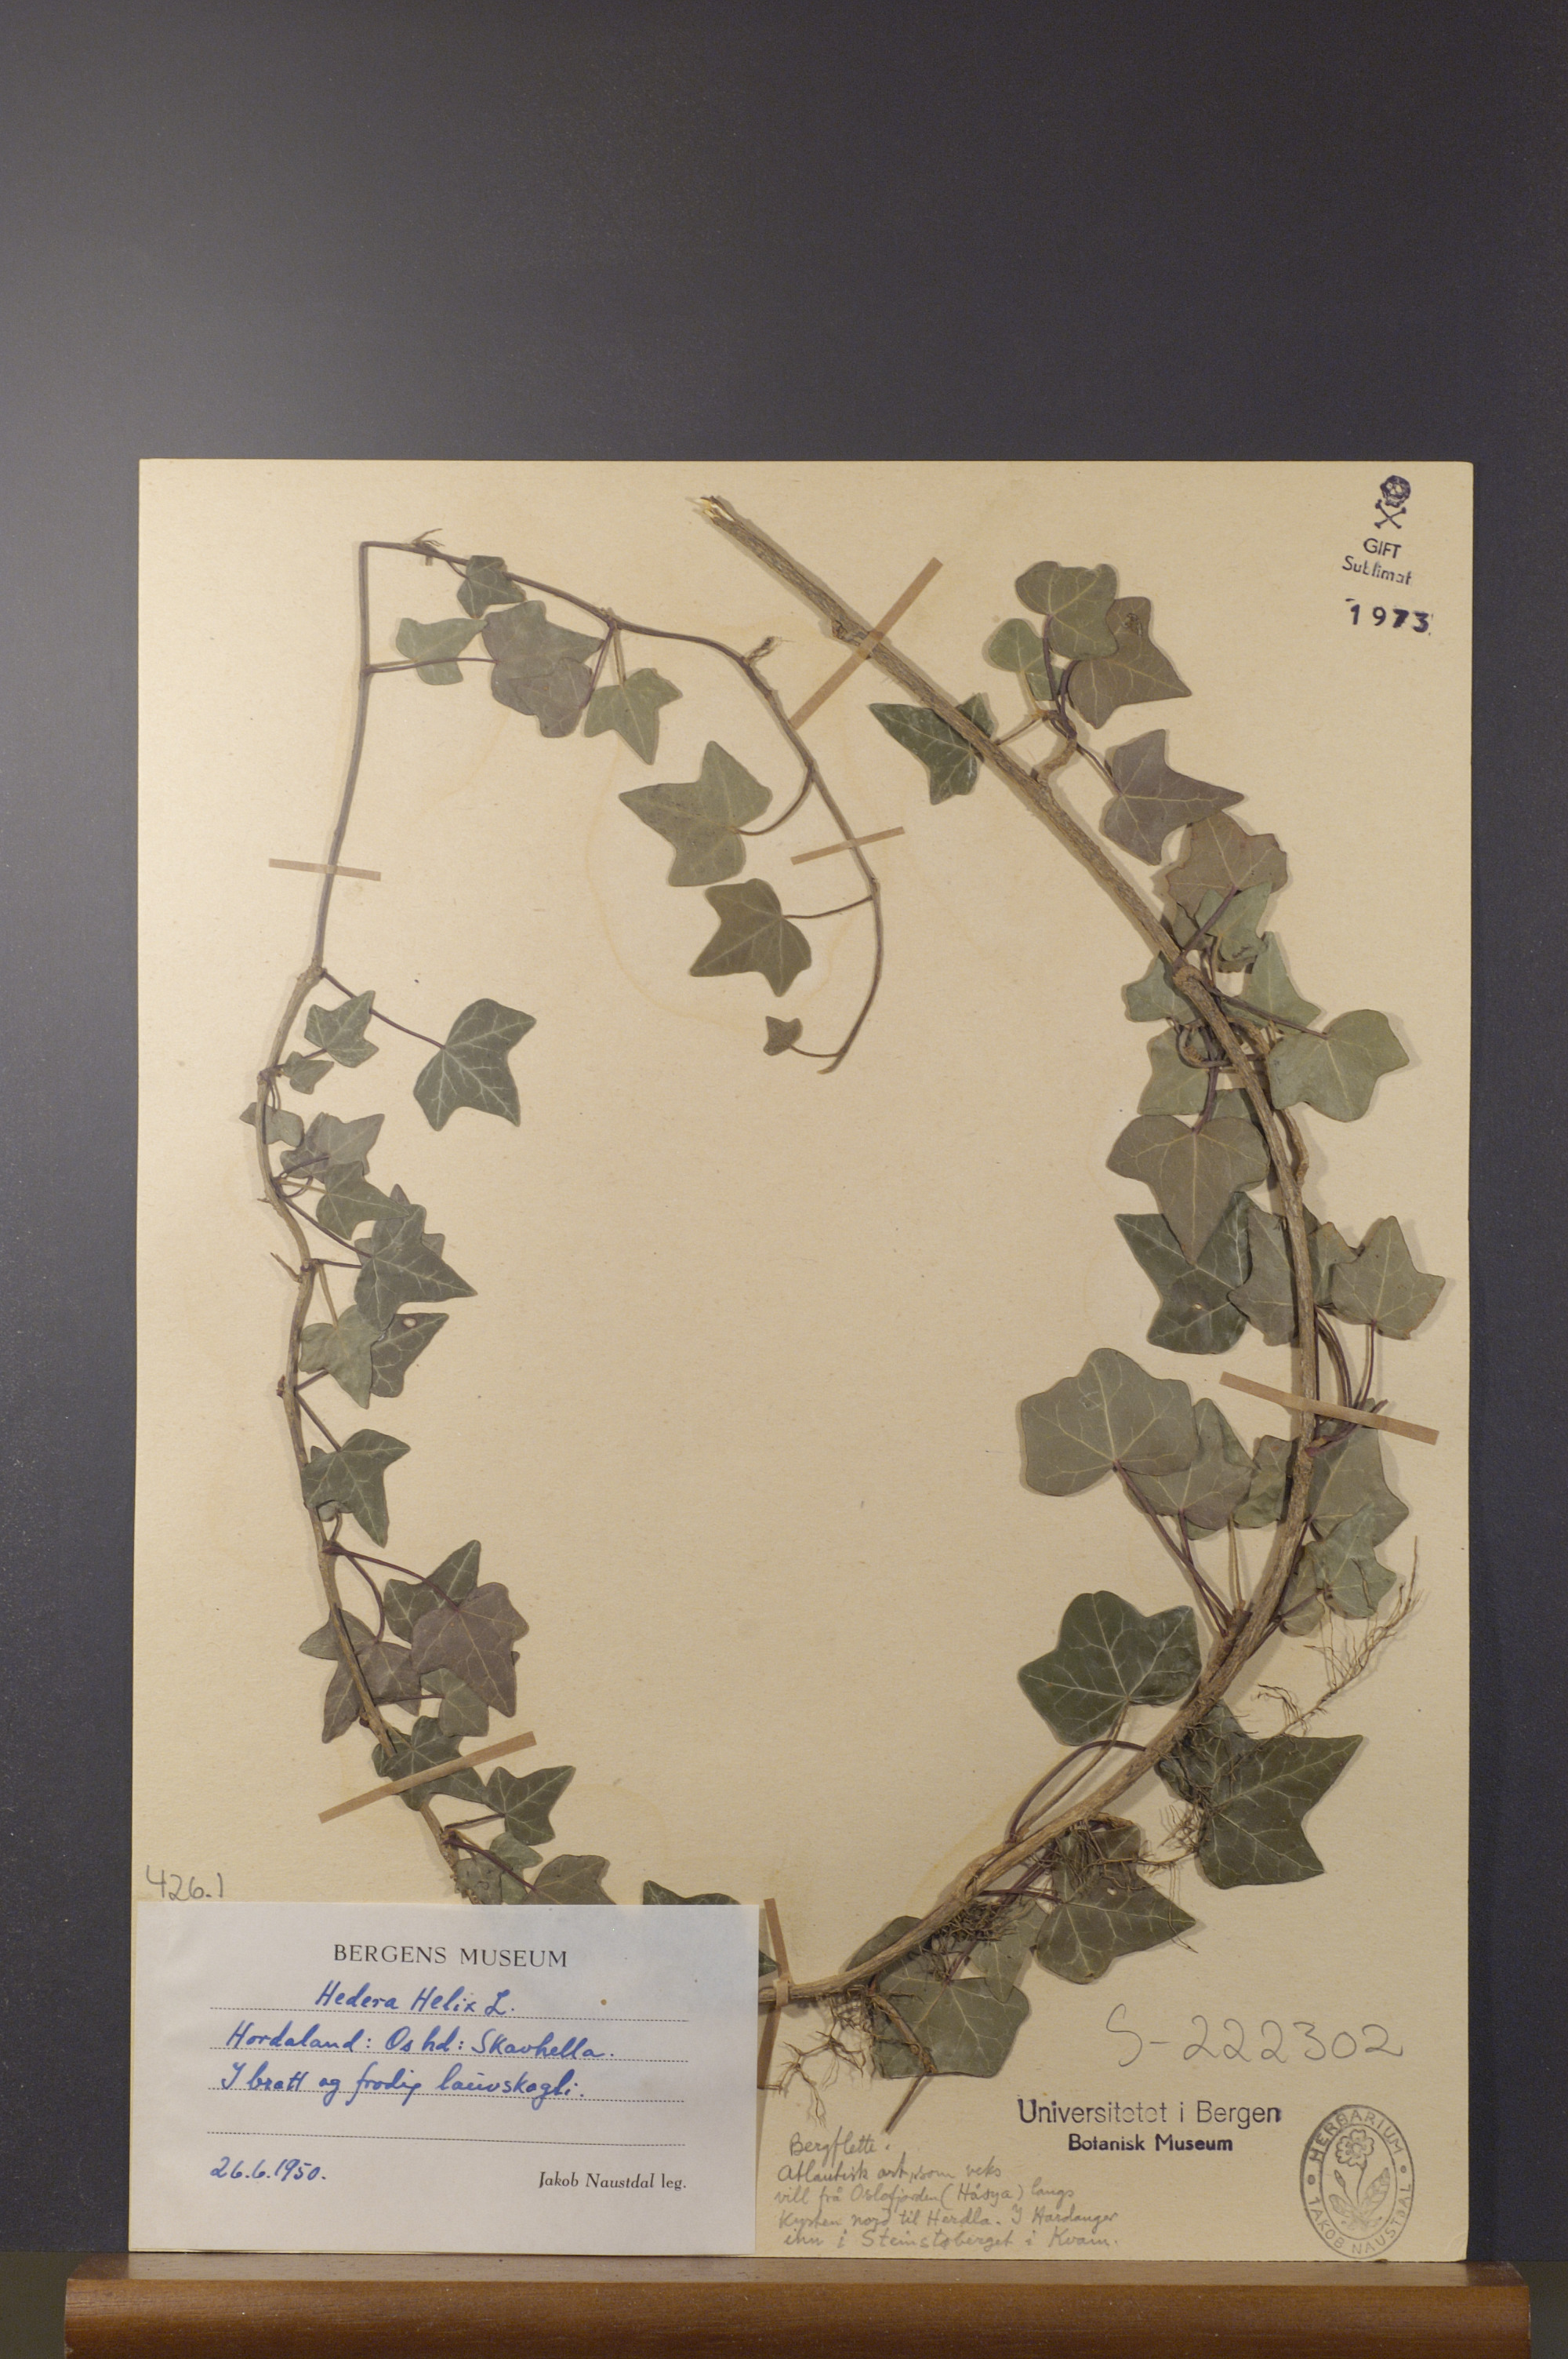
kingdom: Plantae
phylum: Tracheophyta
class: Magnoliopsida
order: Apiales
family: Araliaceae
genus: Hedera
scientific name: Hedera helix
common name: Ivy
